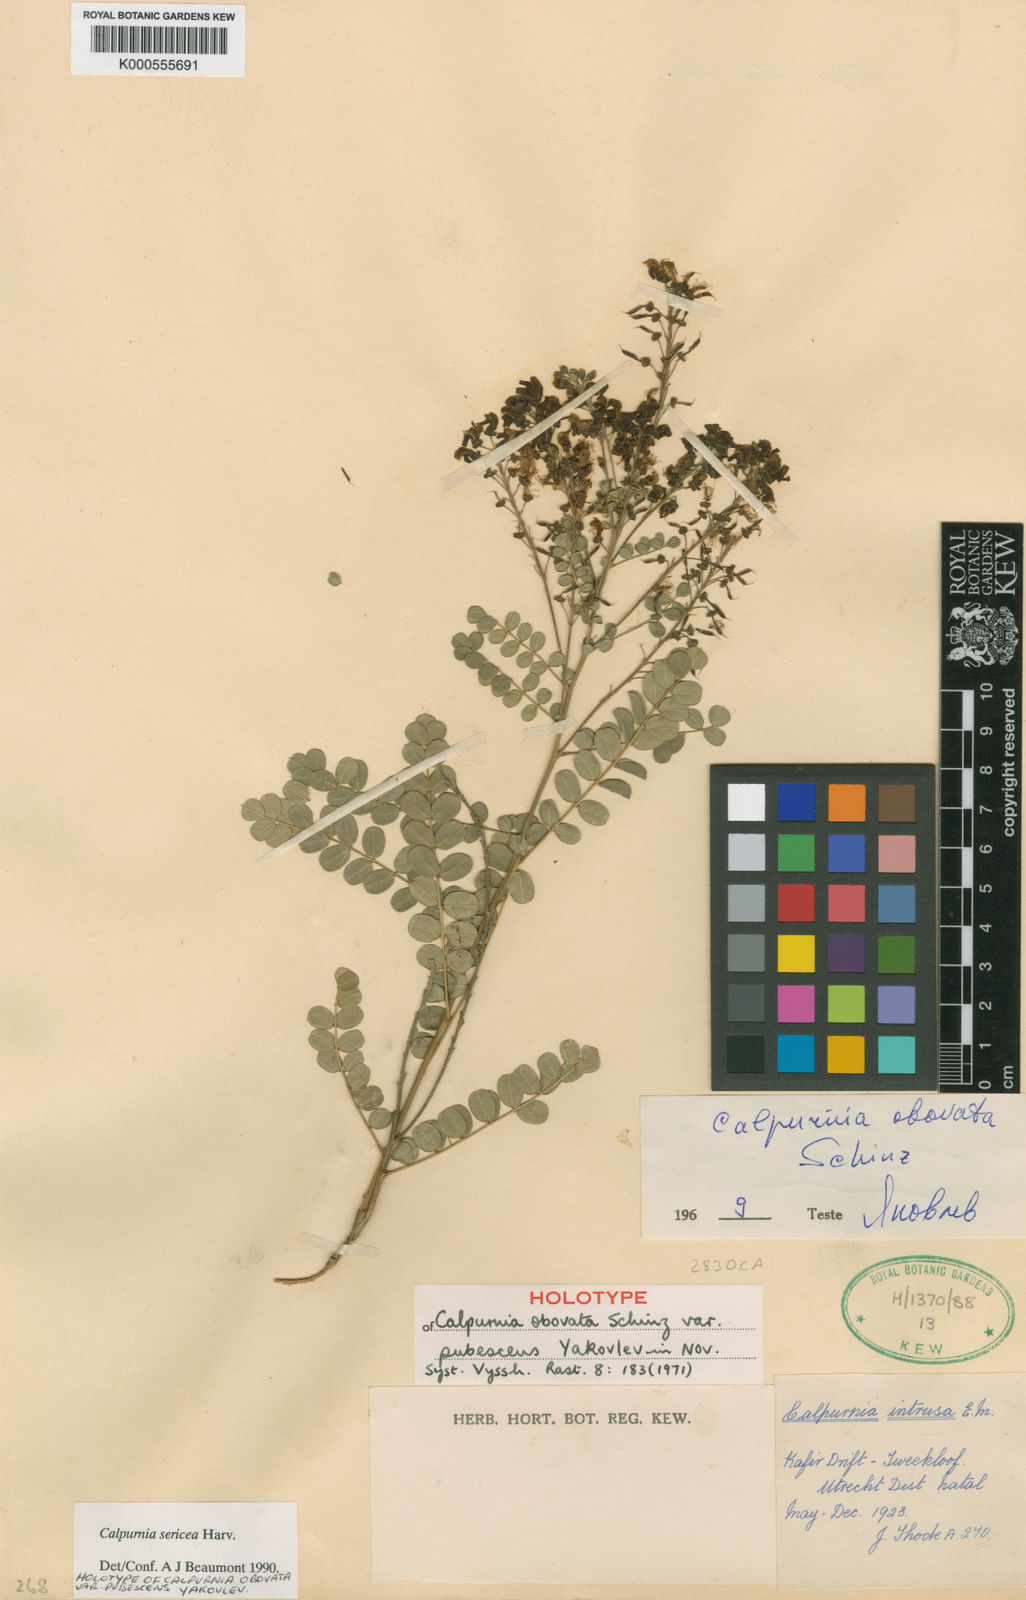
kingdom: Plantae
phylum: Tracheophyta
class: Magnoliopsida
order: Fabales
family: Fabaceae
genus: Calpurnia
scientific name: Calpurnia sericea
